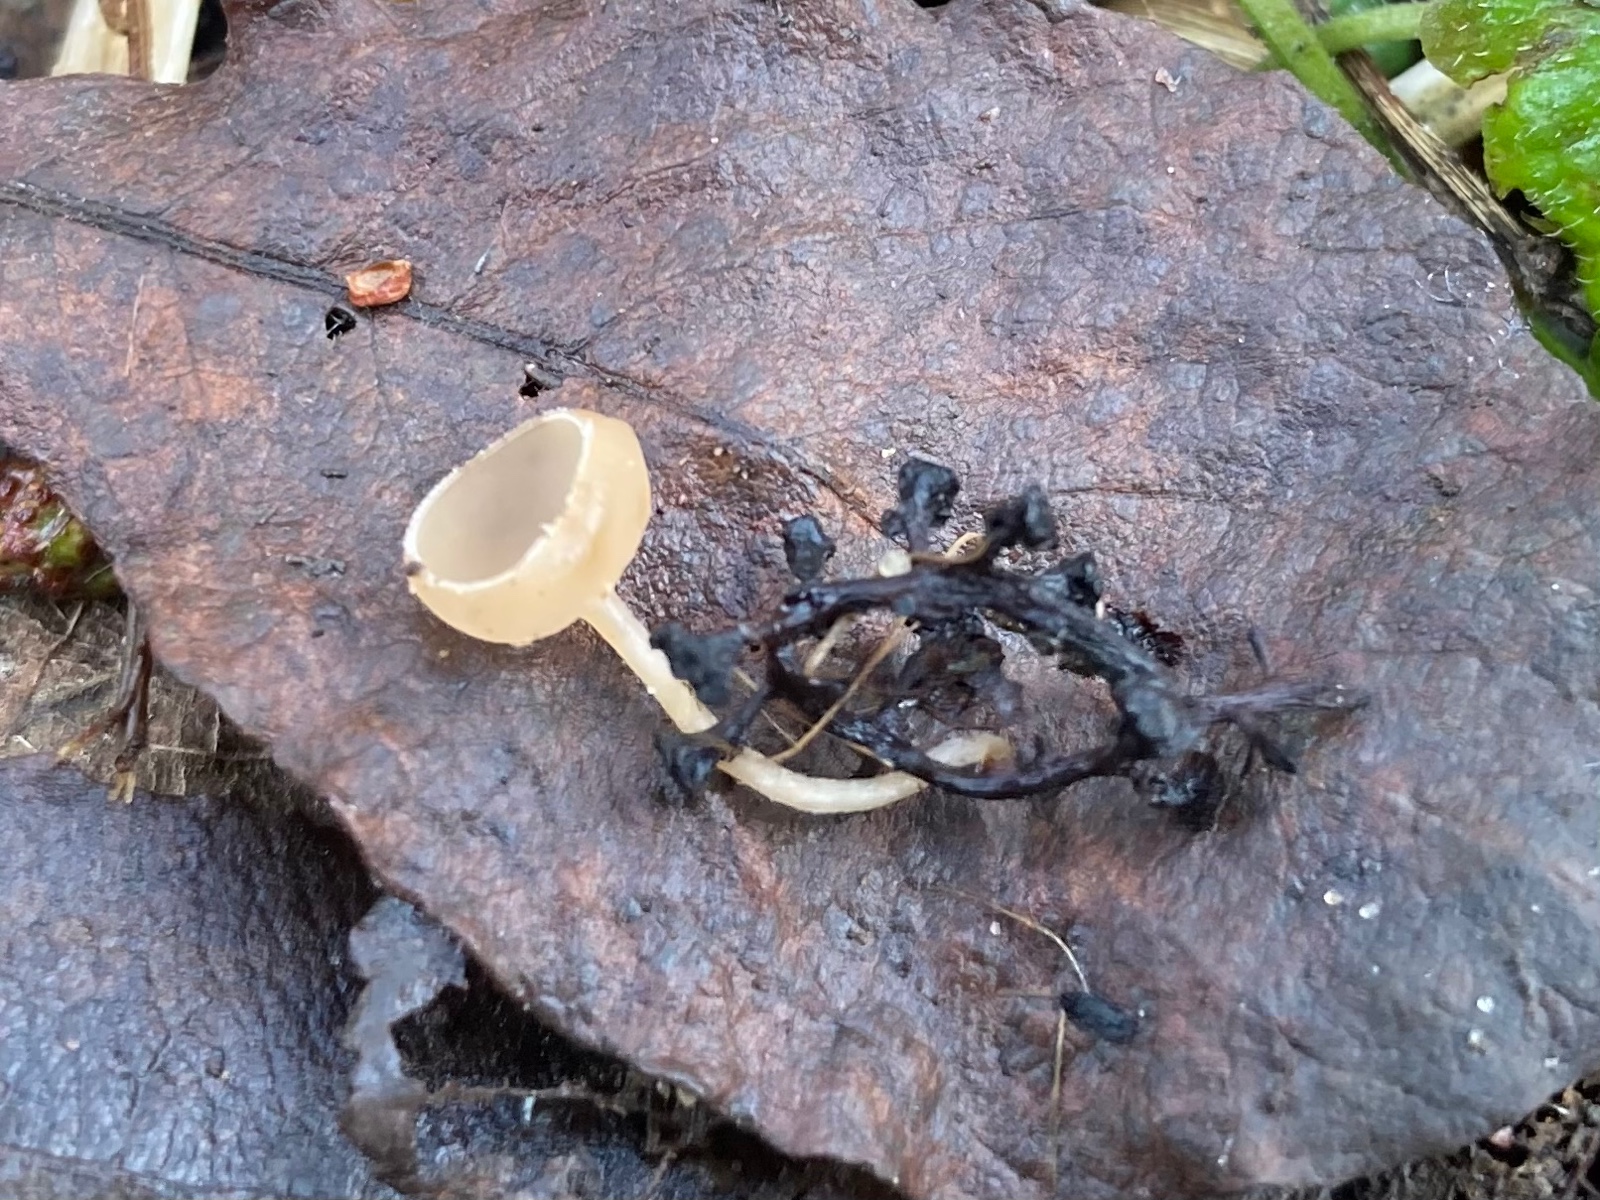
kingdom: Fungi
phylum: Ascomycota
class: Leotiomycetes
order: Helotiales
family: Sclerotiniaceae
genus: Ciboria
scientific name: Ciboria amentacea
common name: ellerakle-knoldskive
